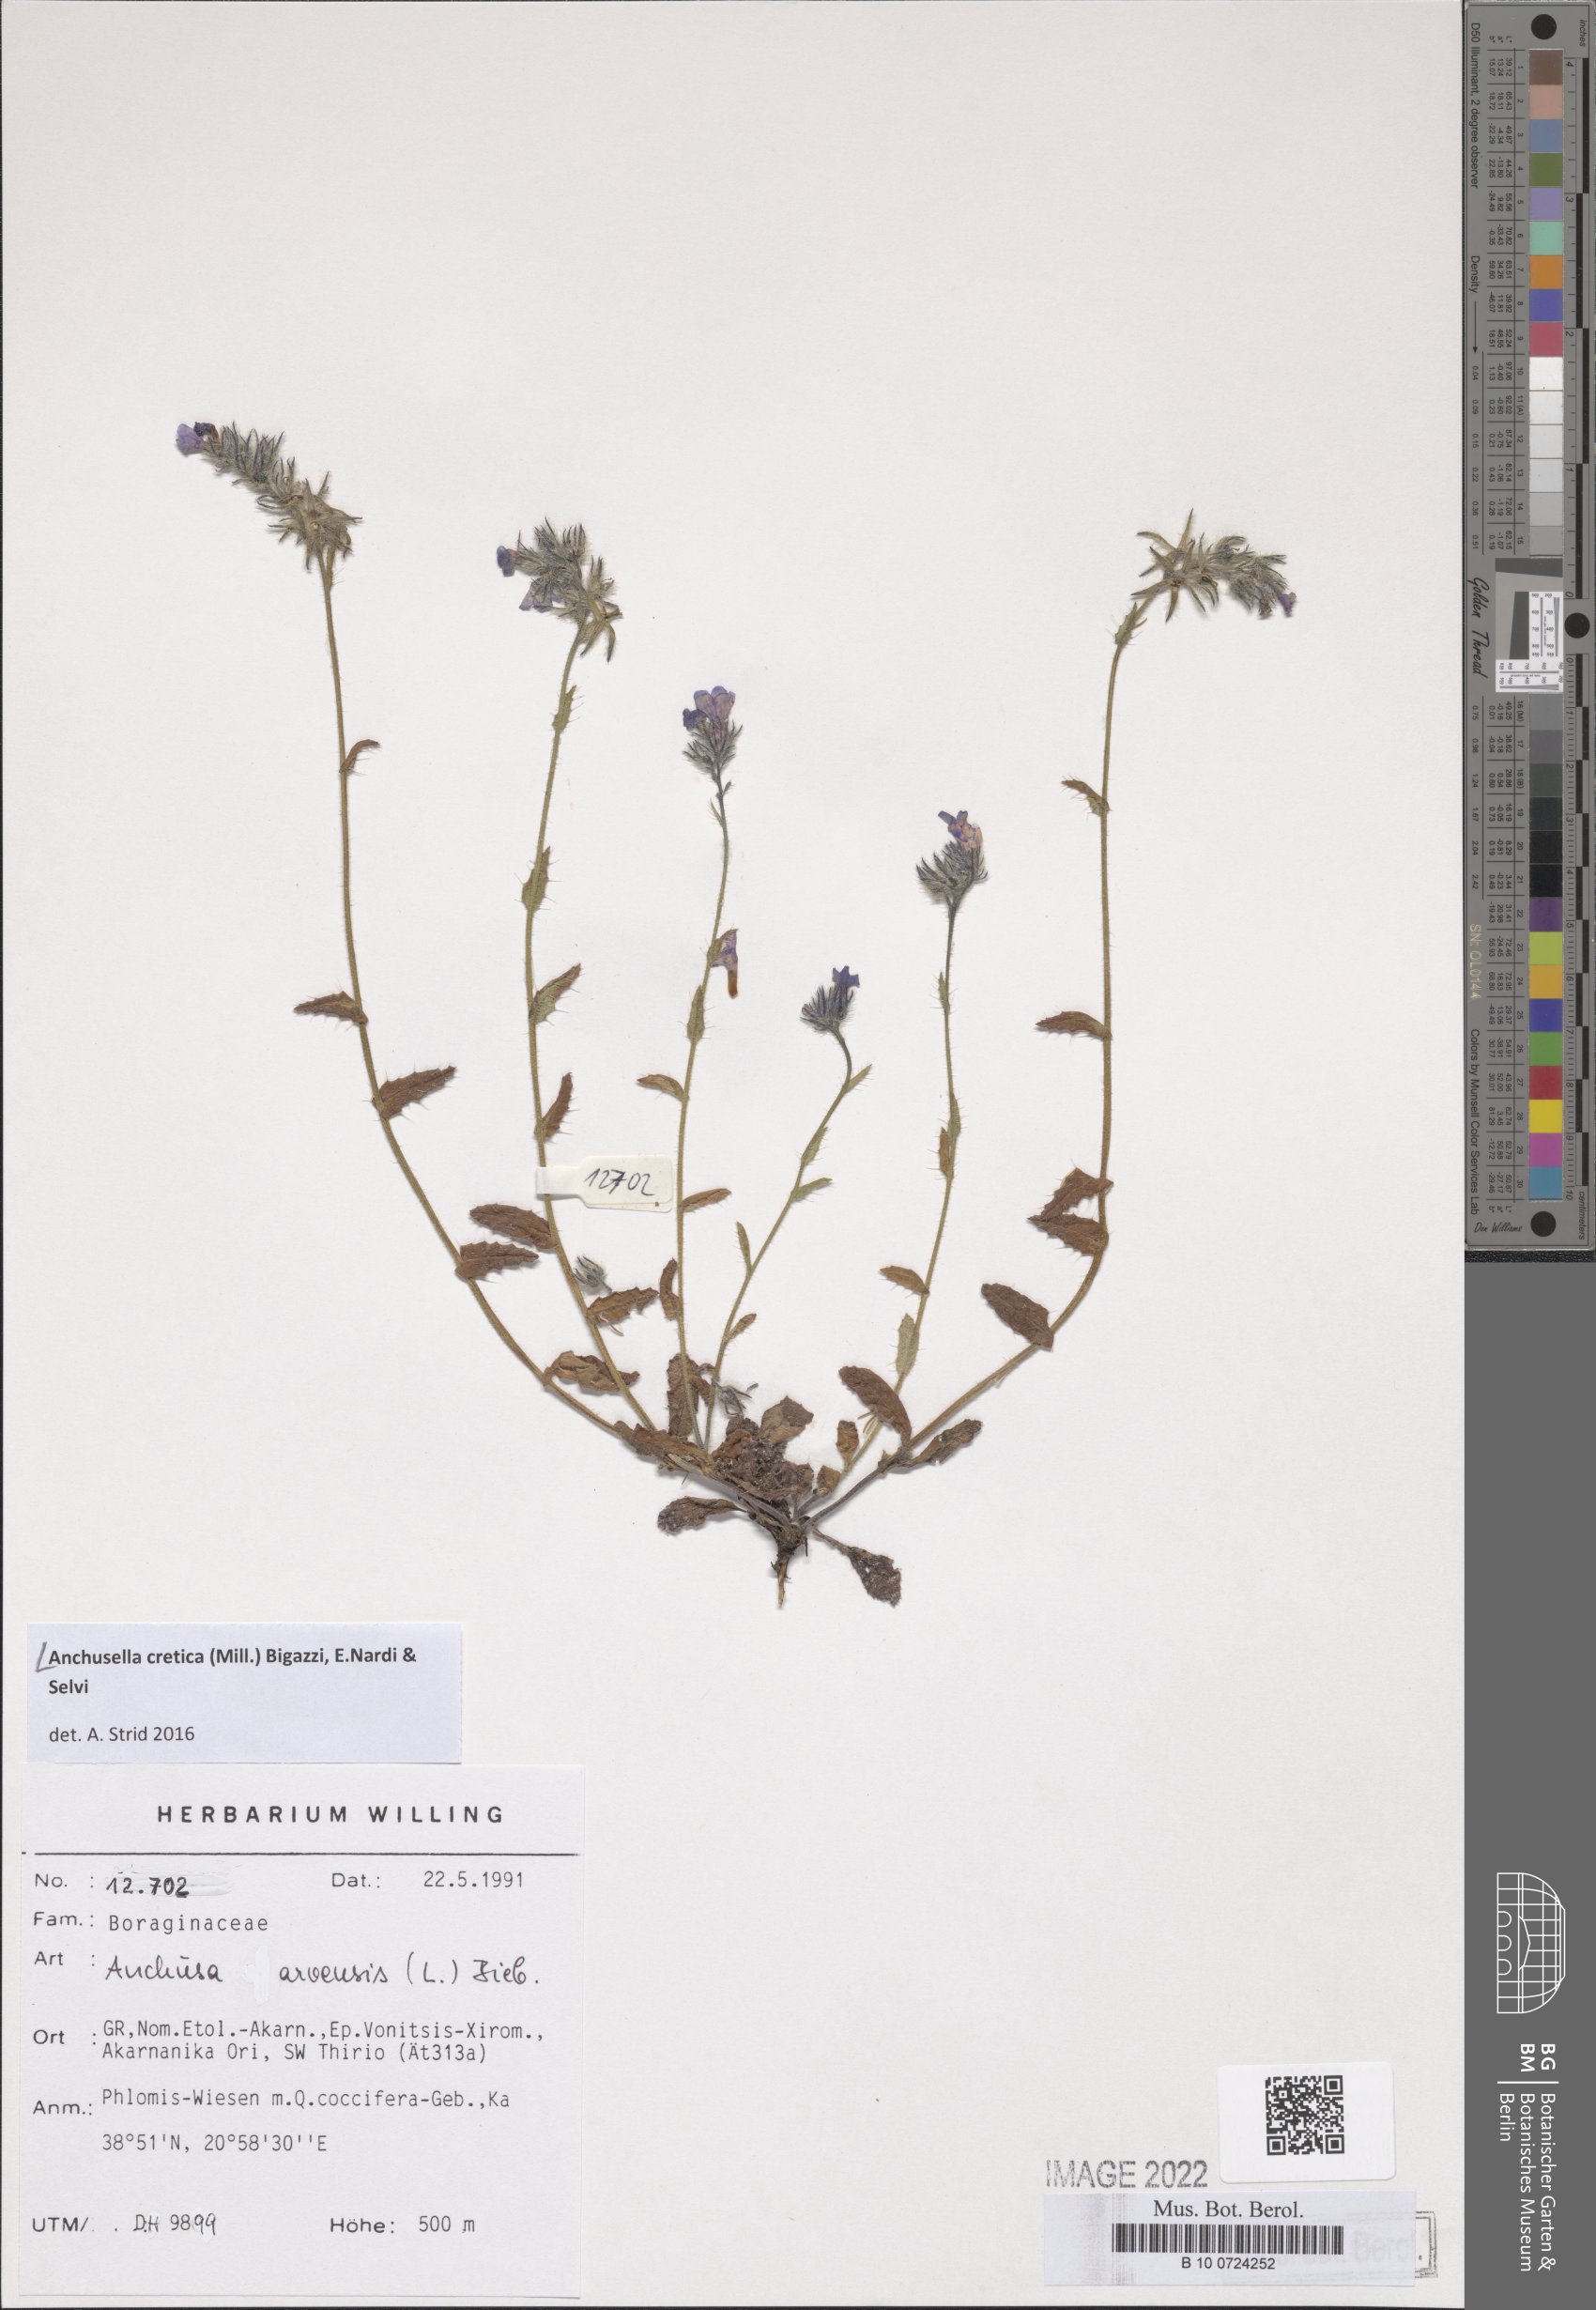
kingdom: Plantae
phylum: Tracheophyta
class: Magnoliopsida
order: Boraginales
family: Boraginaceae
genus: Anchusella
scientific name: Anchusella cretica
